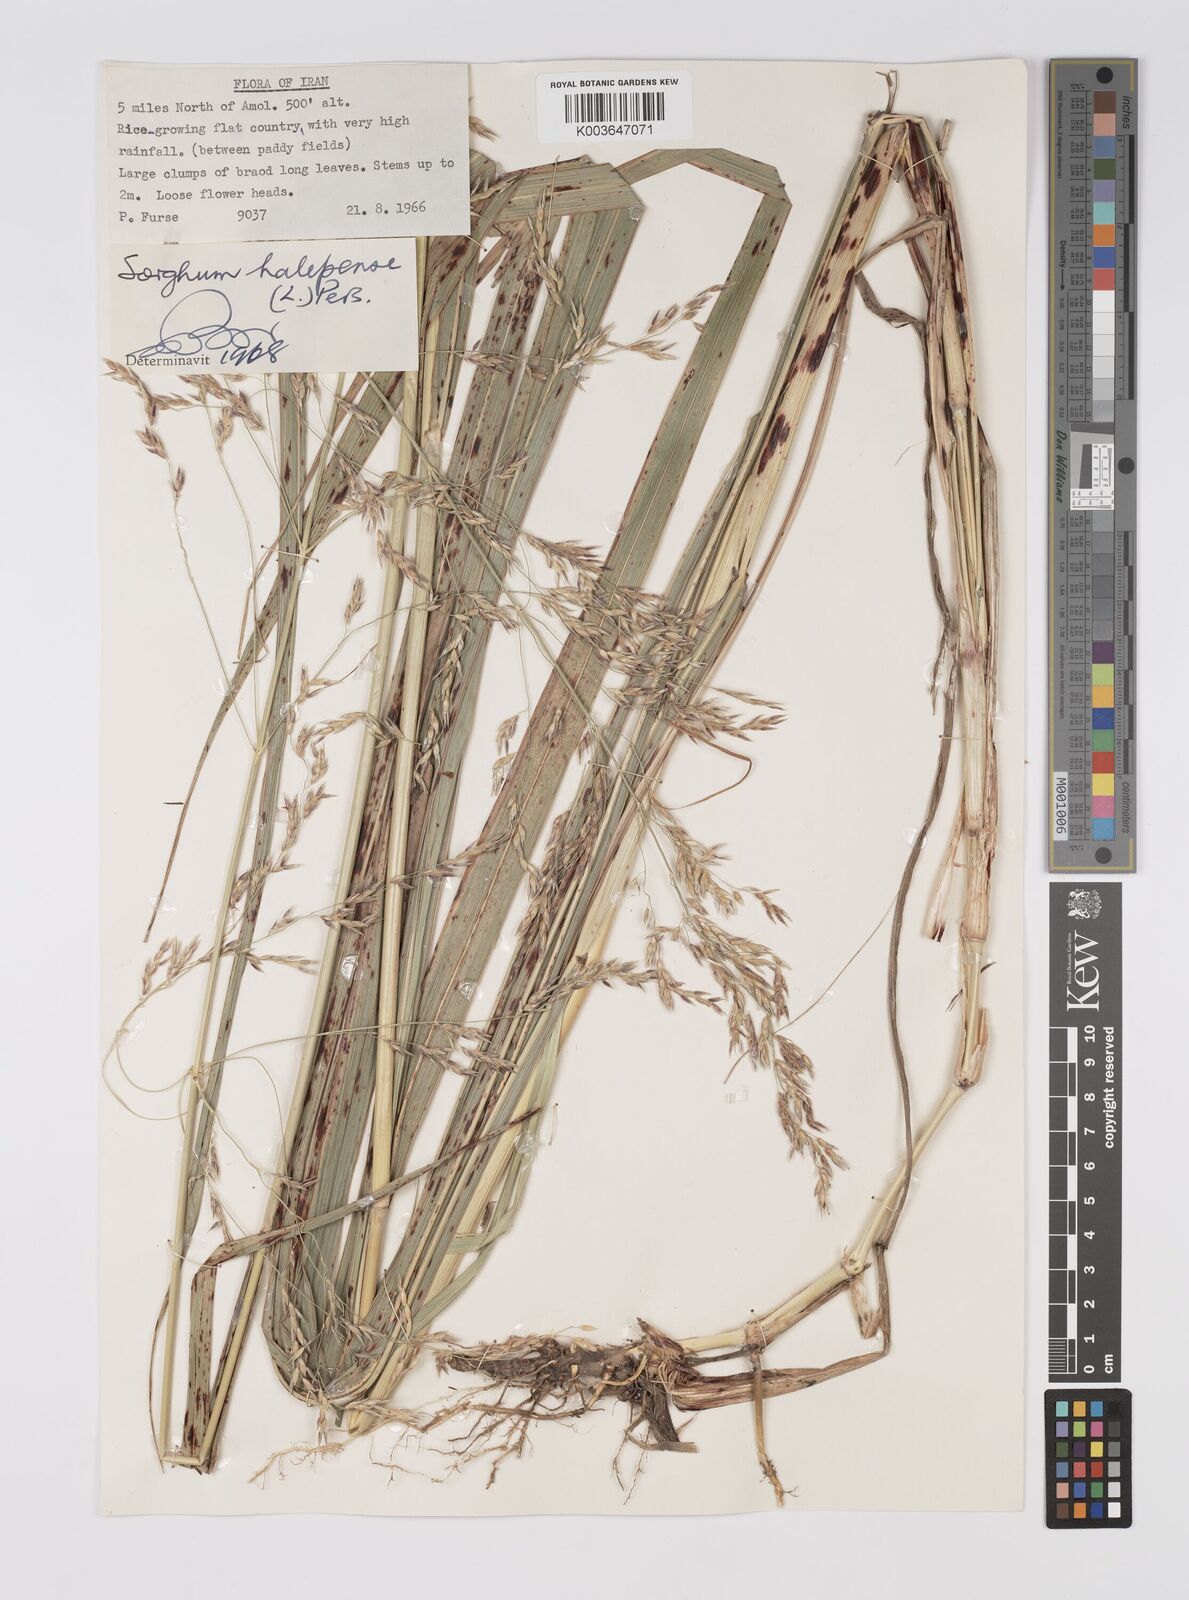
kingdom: Plantae
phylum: Tracheophyta
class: Liliopsida
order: Poales
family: Poaceae
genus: Sorghum
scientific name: Sorghum halepense
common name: Johnson-grass
